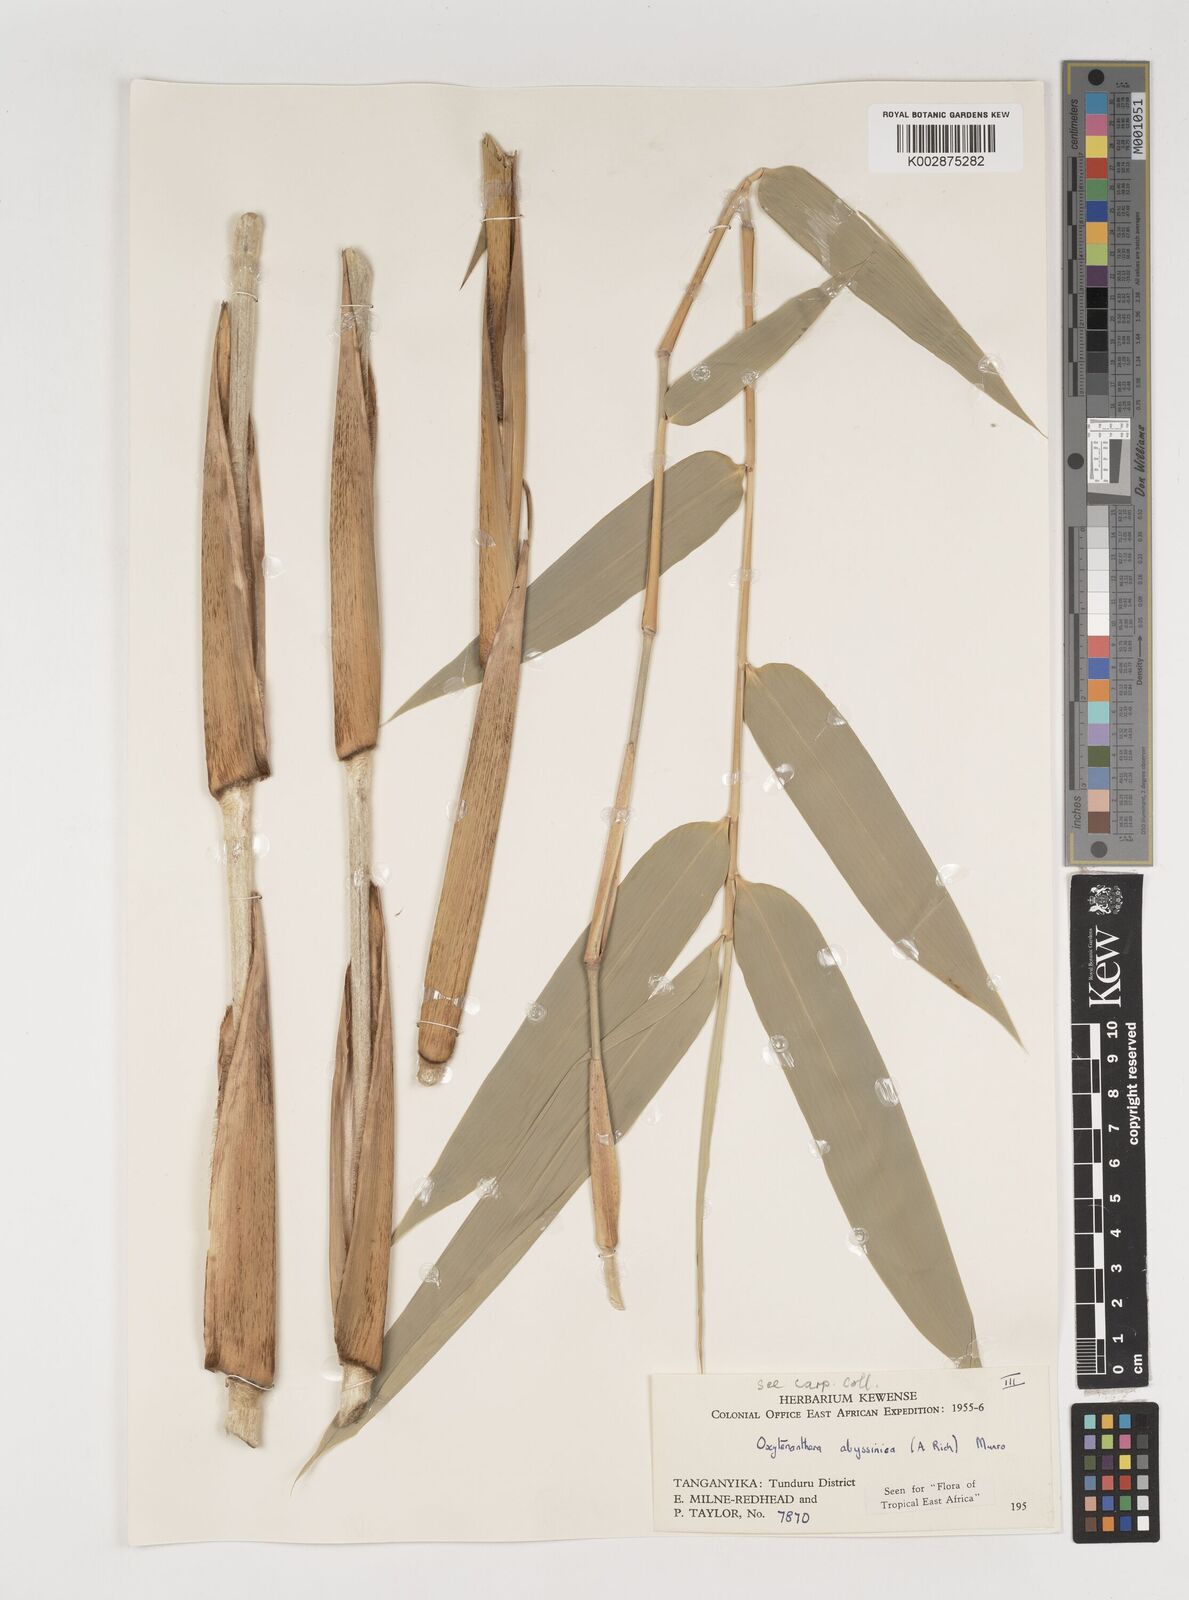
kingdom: Plantae
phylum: Tracheophyta
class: Liliopsida
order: Poales
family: Poaceae
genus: Oxytenanthera
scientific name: Oxytenanthera abyssinica
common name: Wine bamboo
